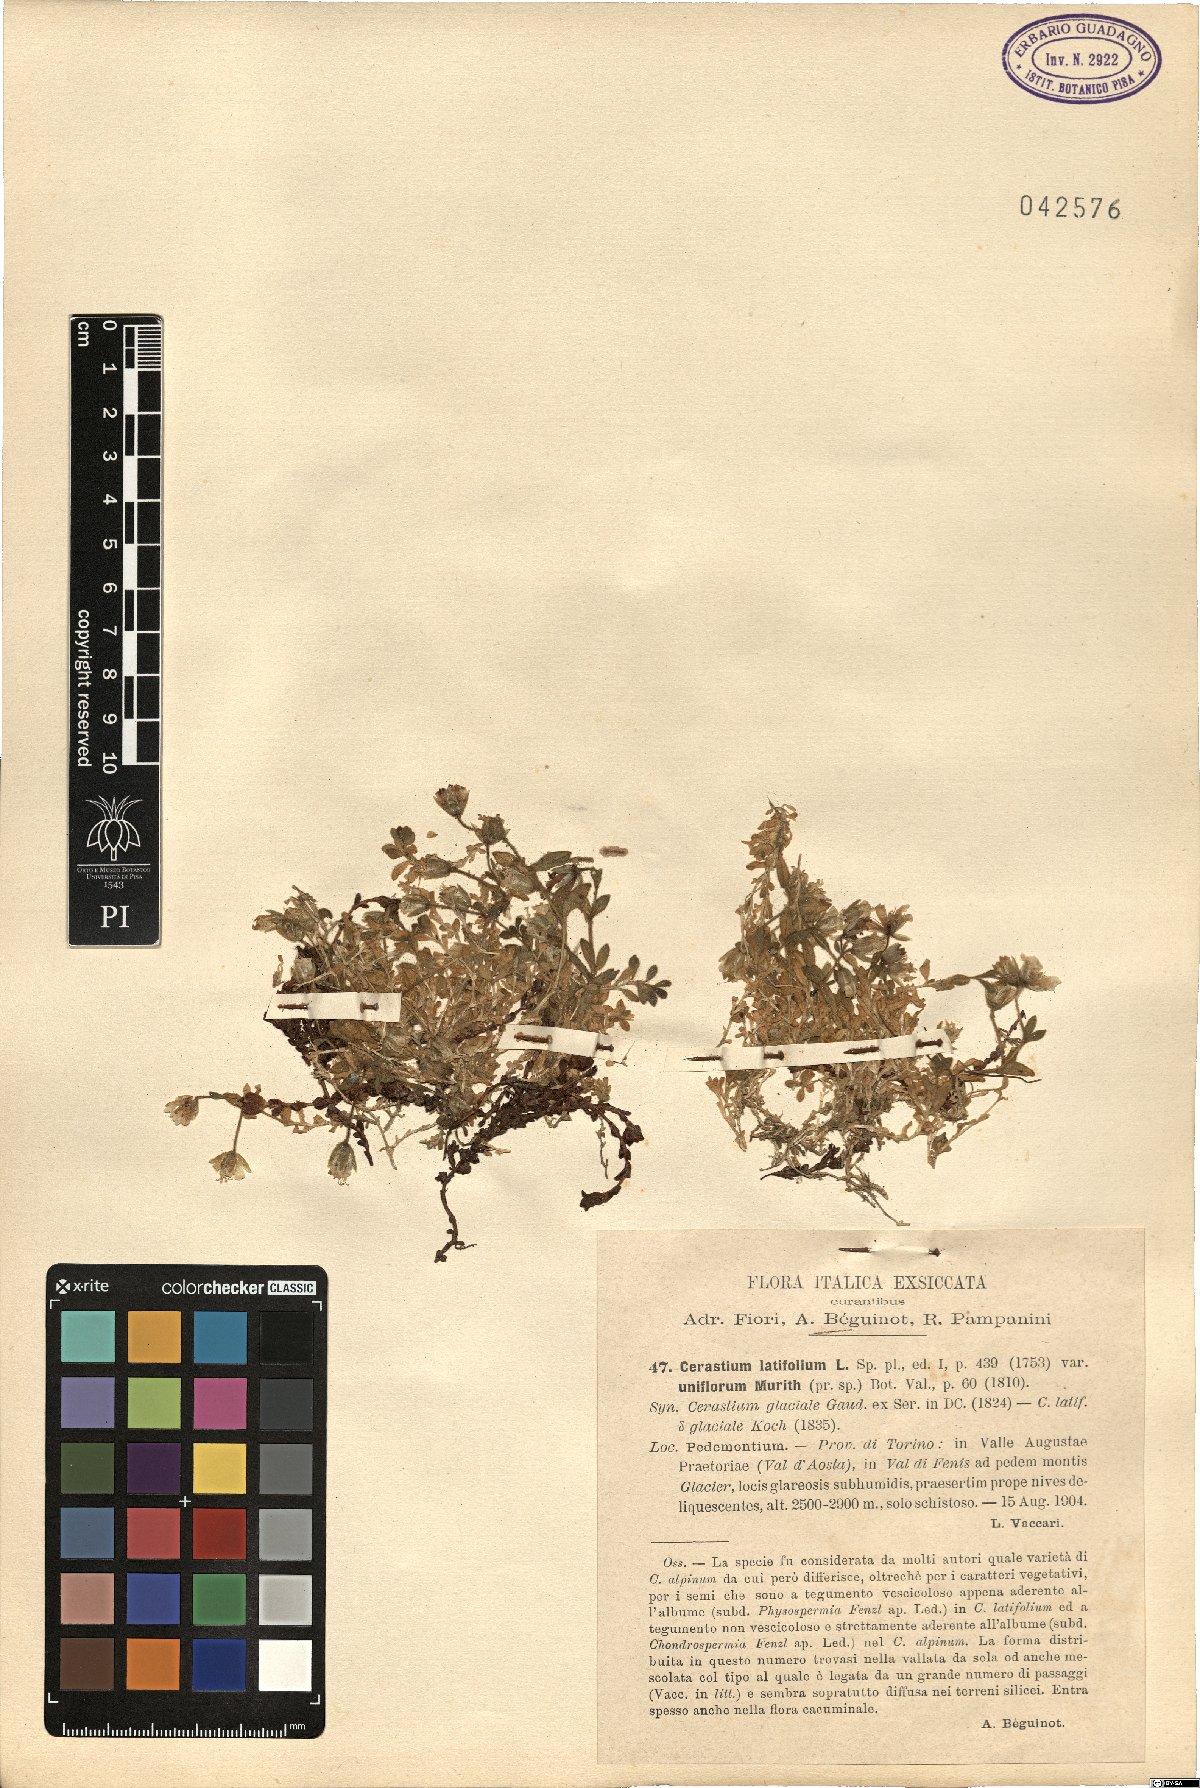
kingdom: Plantae
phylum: Tracheophyta
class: Magnoliopsida
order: Caryophyllales
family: Caryophyllaceae
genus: Cerastium
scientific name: Cerastium uniflorum
